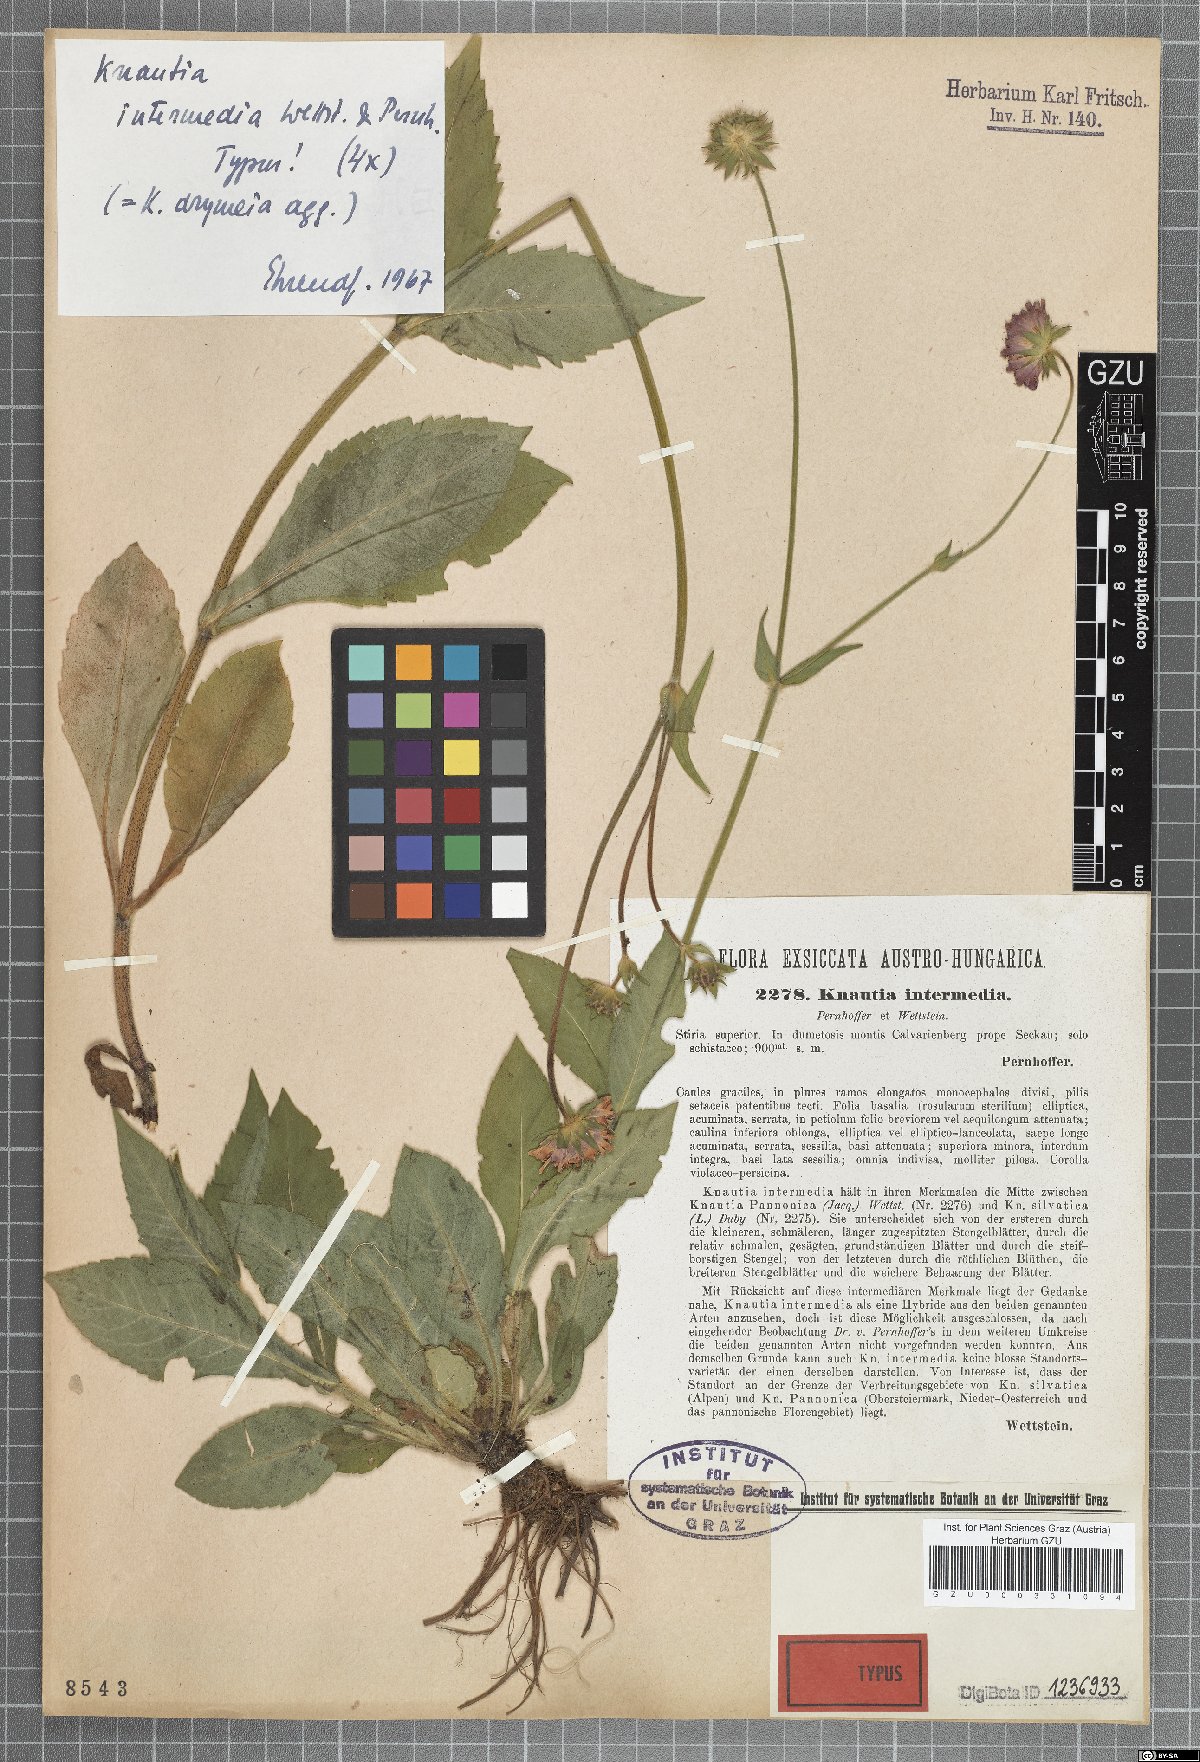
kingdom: Plantae
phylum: Tracheophyta
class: Magnoliopsida
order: Dipsacales
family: Caprifoliaceae
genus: Knautia
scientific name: Knautia drymeia
